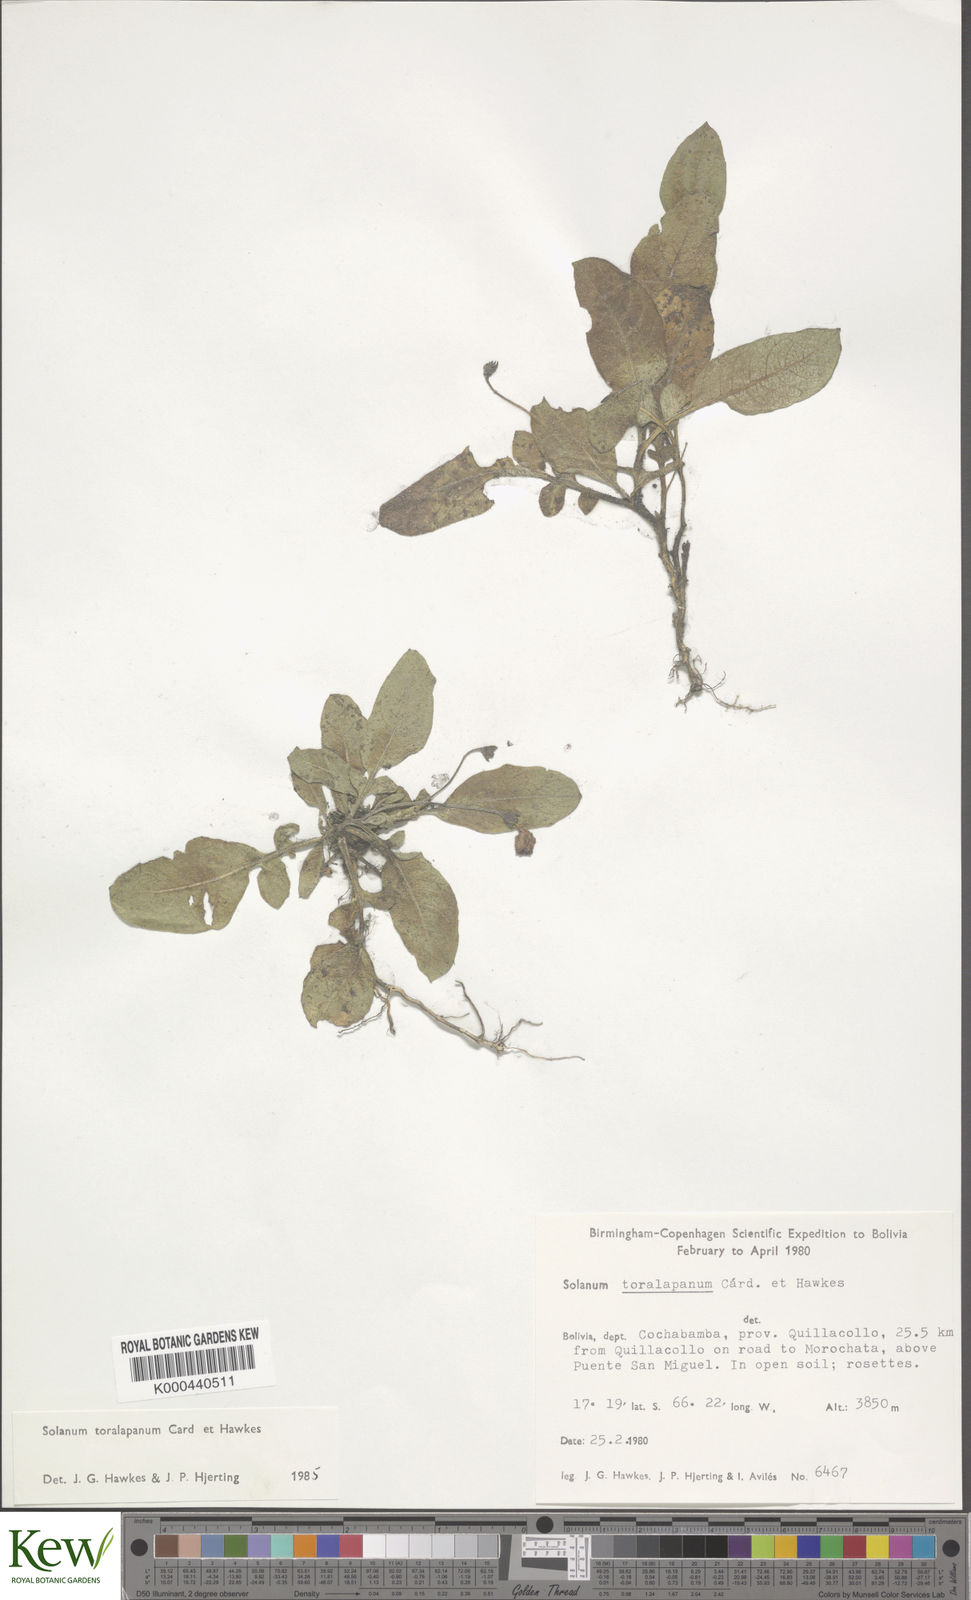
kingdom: Plantae
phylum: Tracheophyta
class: Magnoliopsida
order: Solanales
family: Solanaceae
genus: Solanum
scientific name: Solanum boliviense
